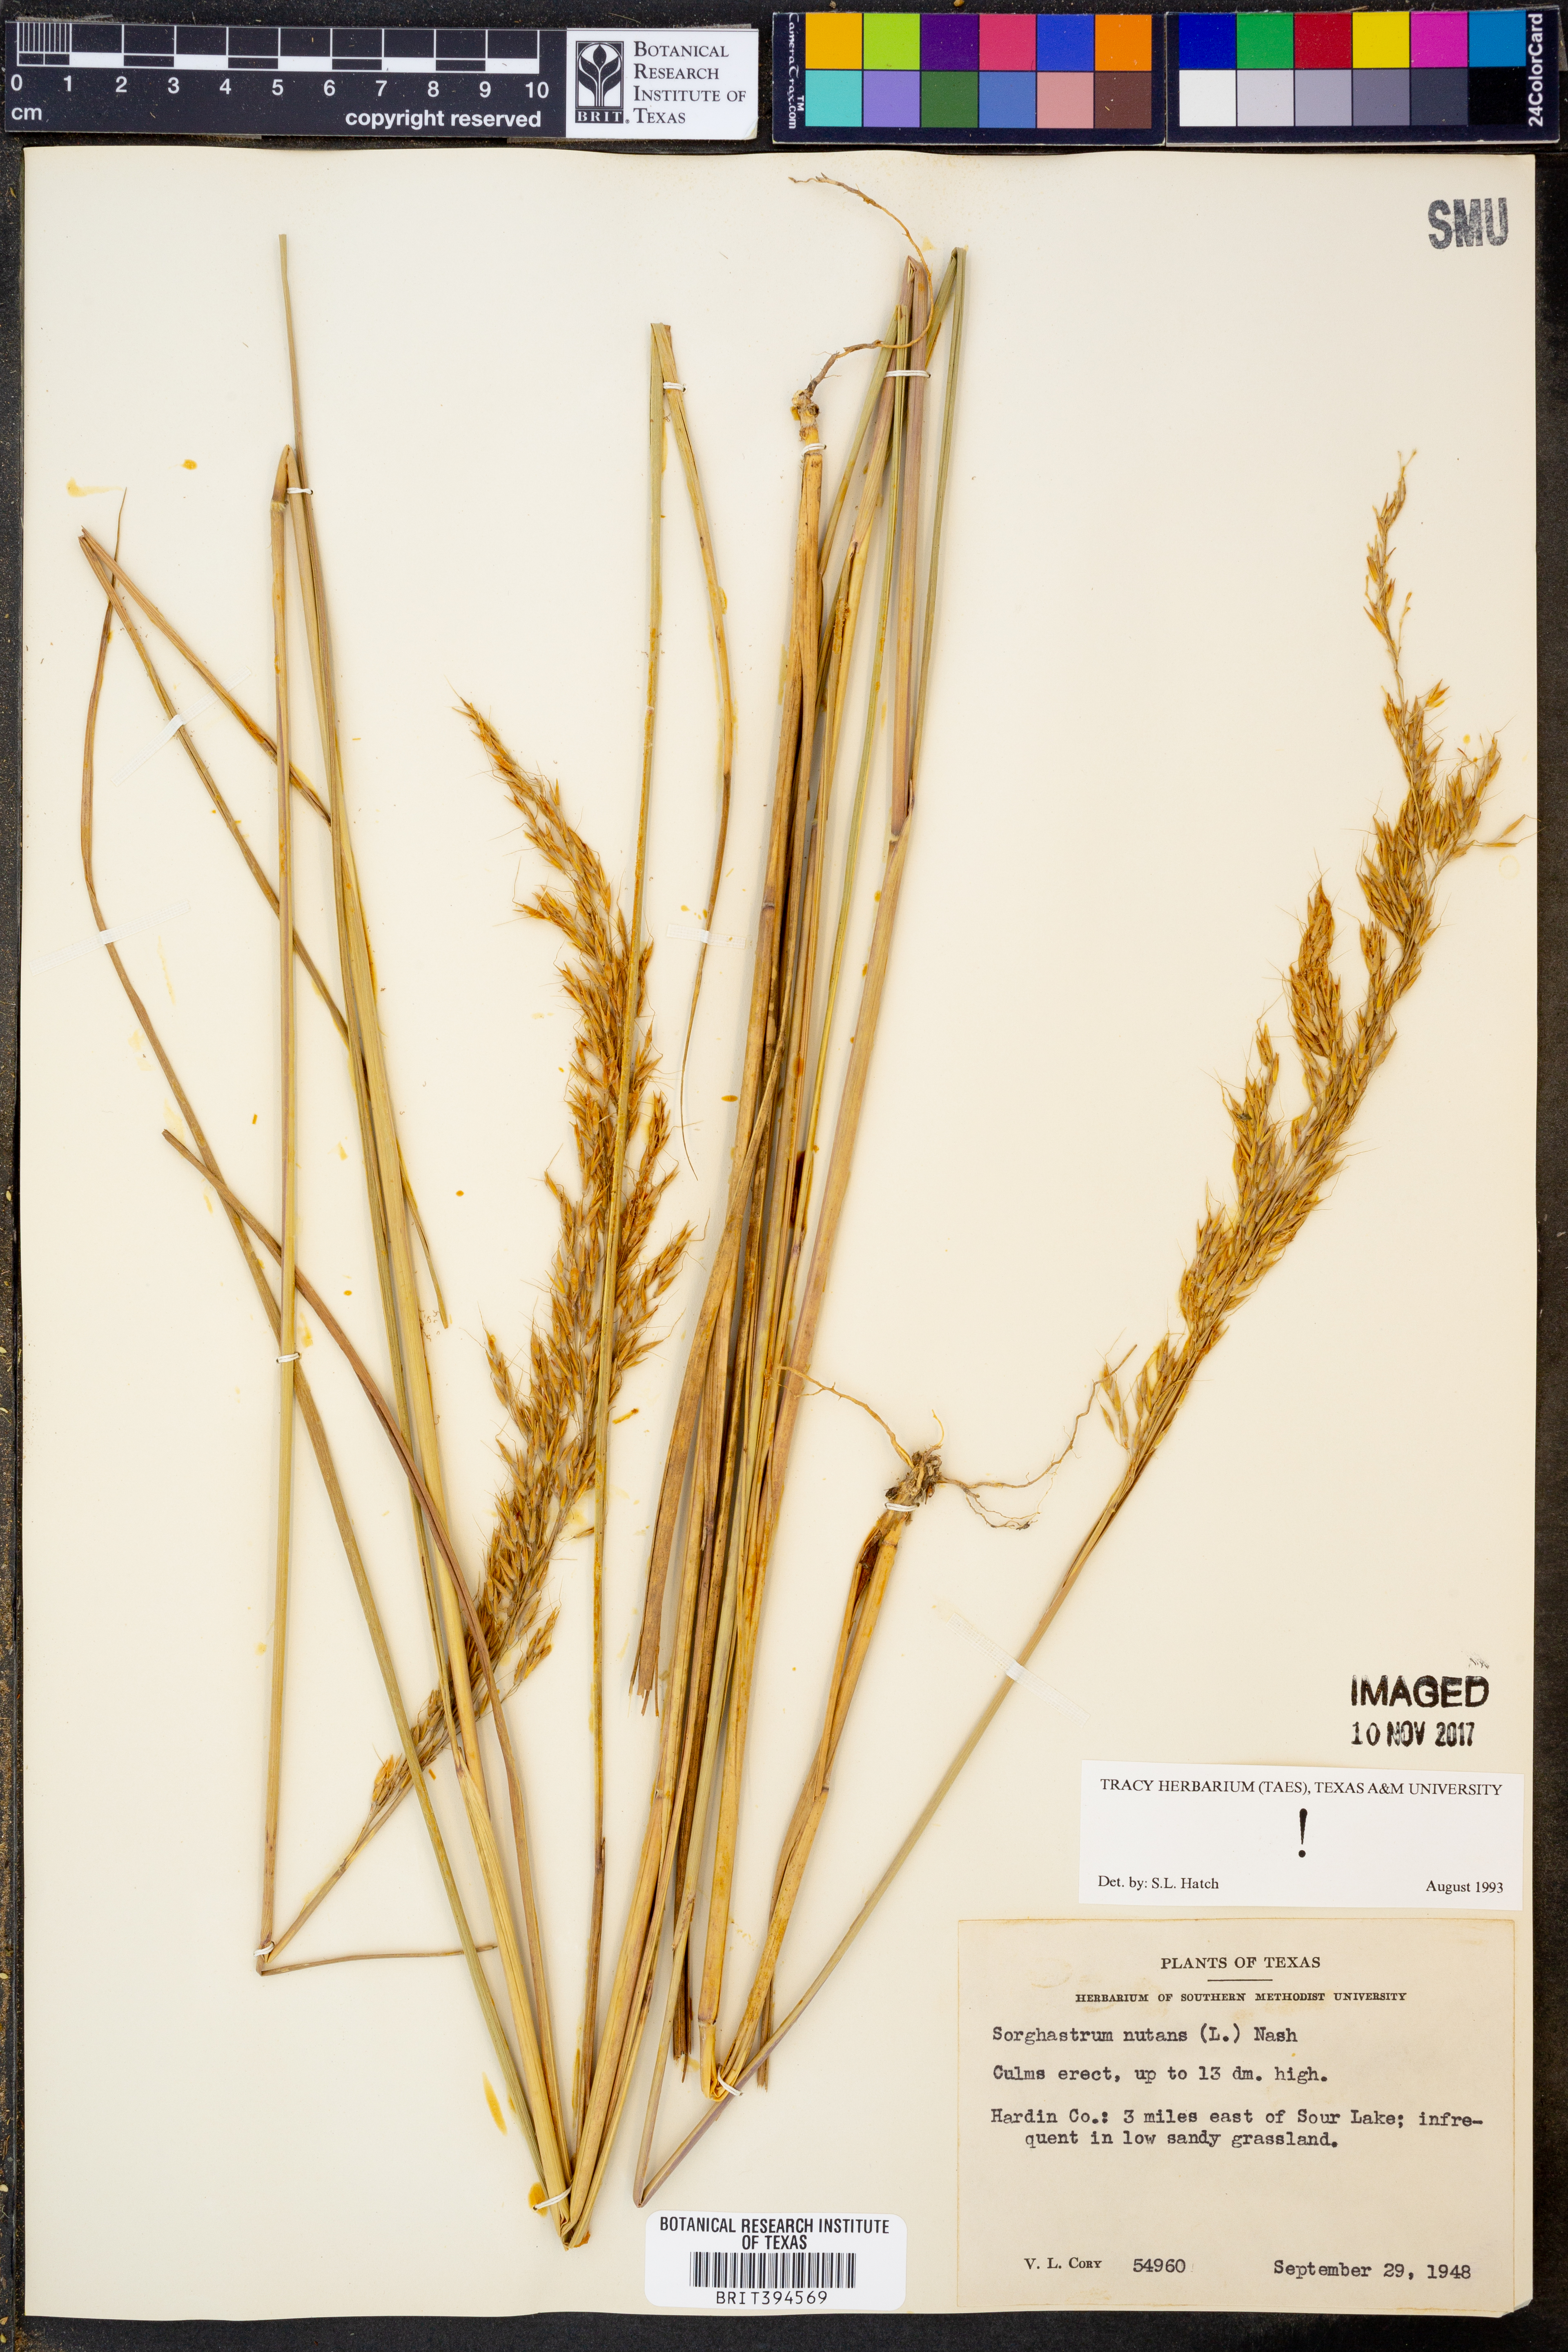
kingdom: Plantae
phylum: Tracheophyta
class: Liliopsida
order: Poales
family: Poaceae
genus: Sorghastrum
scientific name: Sorghastrum nutans
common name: Indian grass
